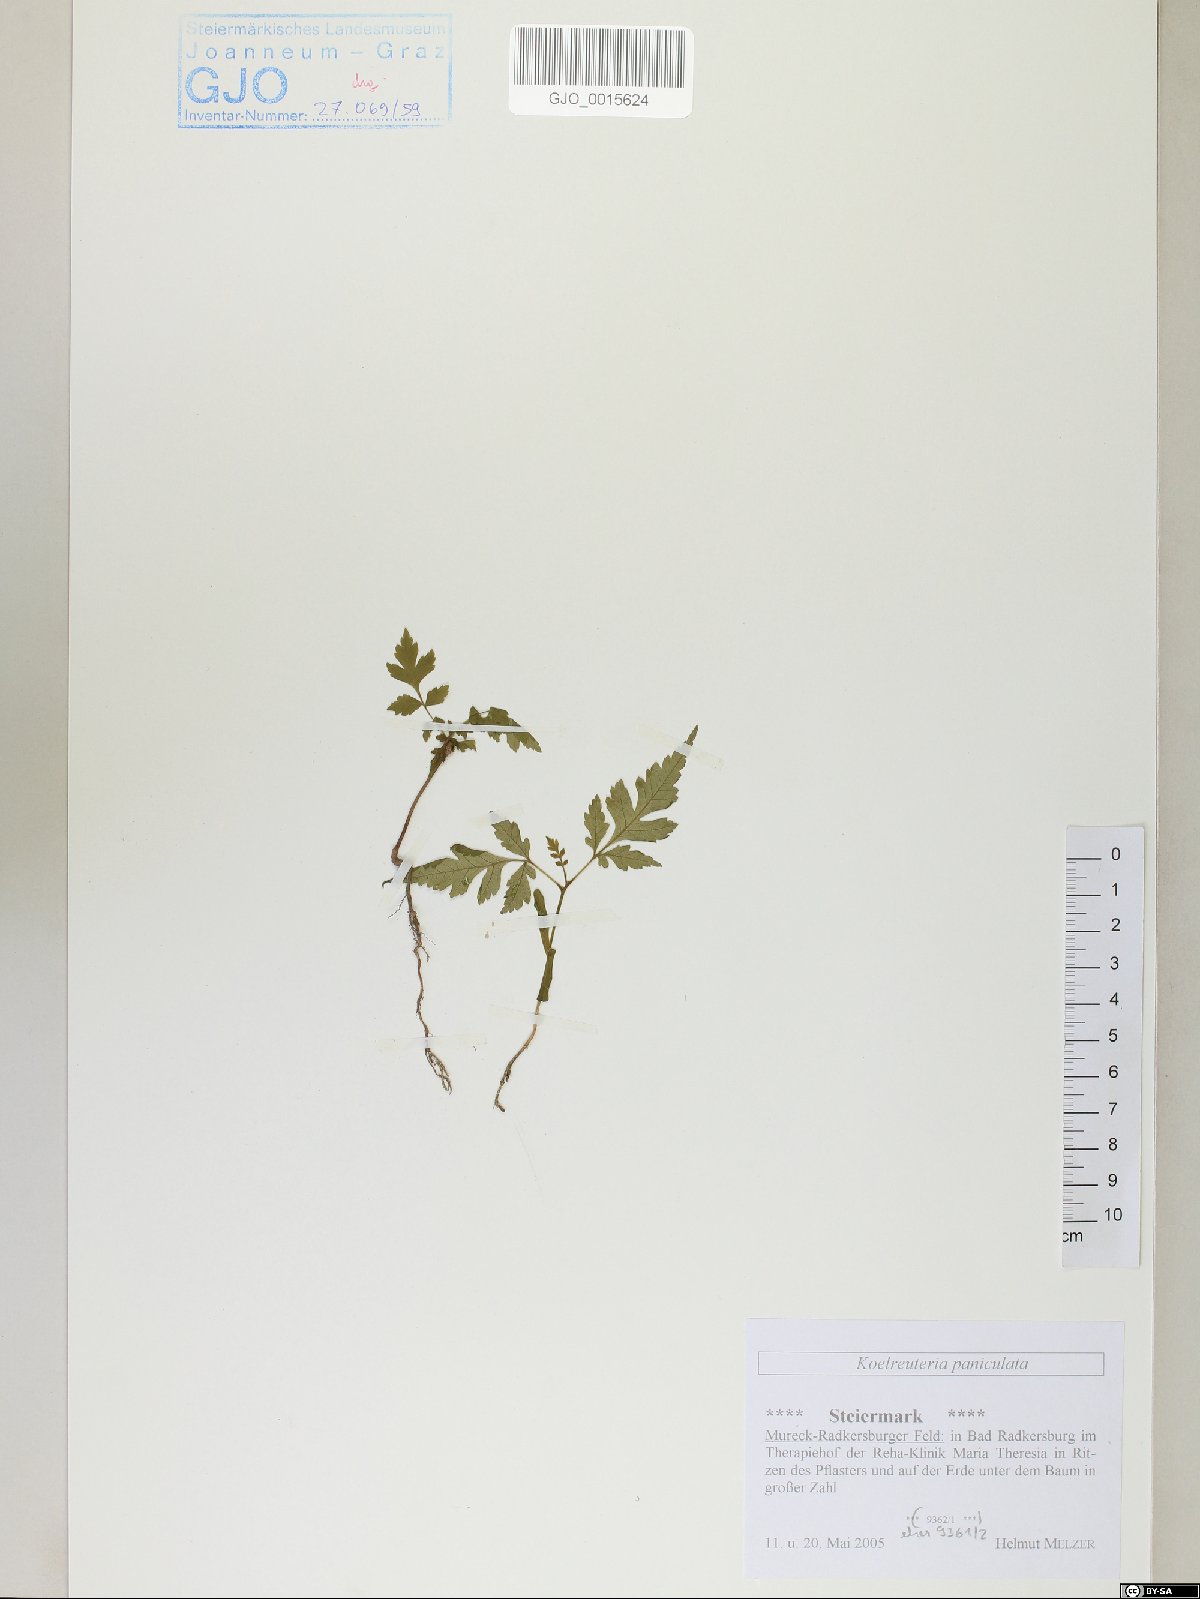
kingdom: Plantae
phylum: Tracheophyta
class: Magnoliopsida
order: Sapindales
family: Sapindaceae
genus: Koelreuteria
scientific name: Koelreuteria paniculata
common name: Pride-of-india
